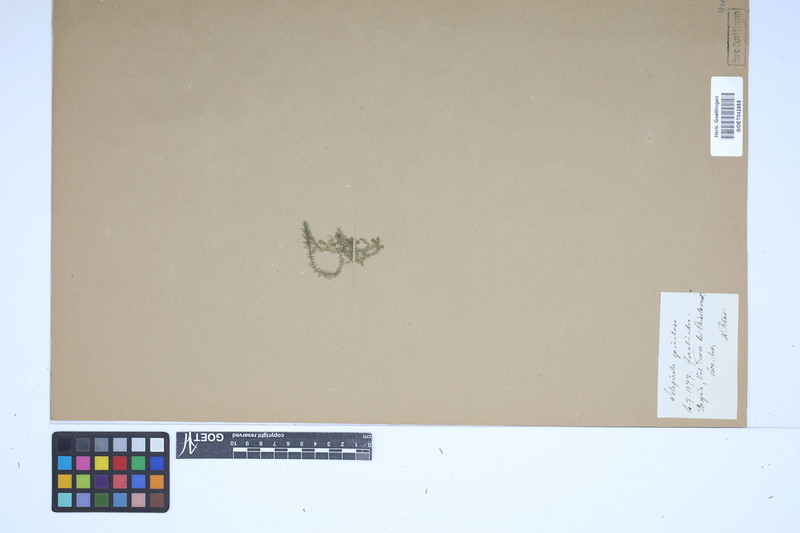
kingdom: Plantae
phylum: Tracheophyta
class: Lycopodiopsida
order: Selaginellales
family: Selaginellaceae
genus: Selaginella
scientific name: Selaginella selaginoides
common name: Prickly mountain-moss
